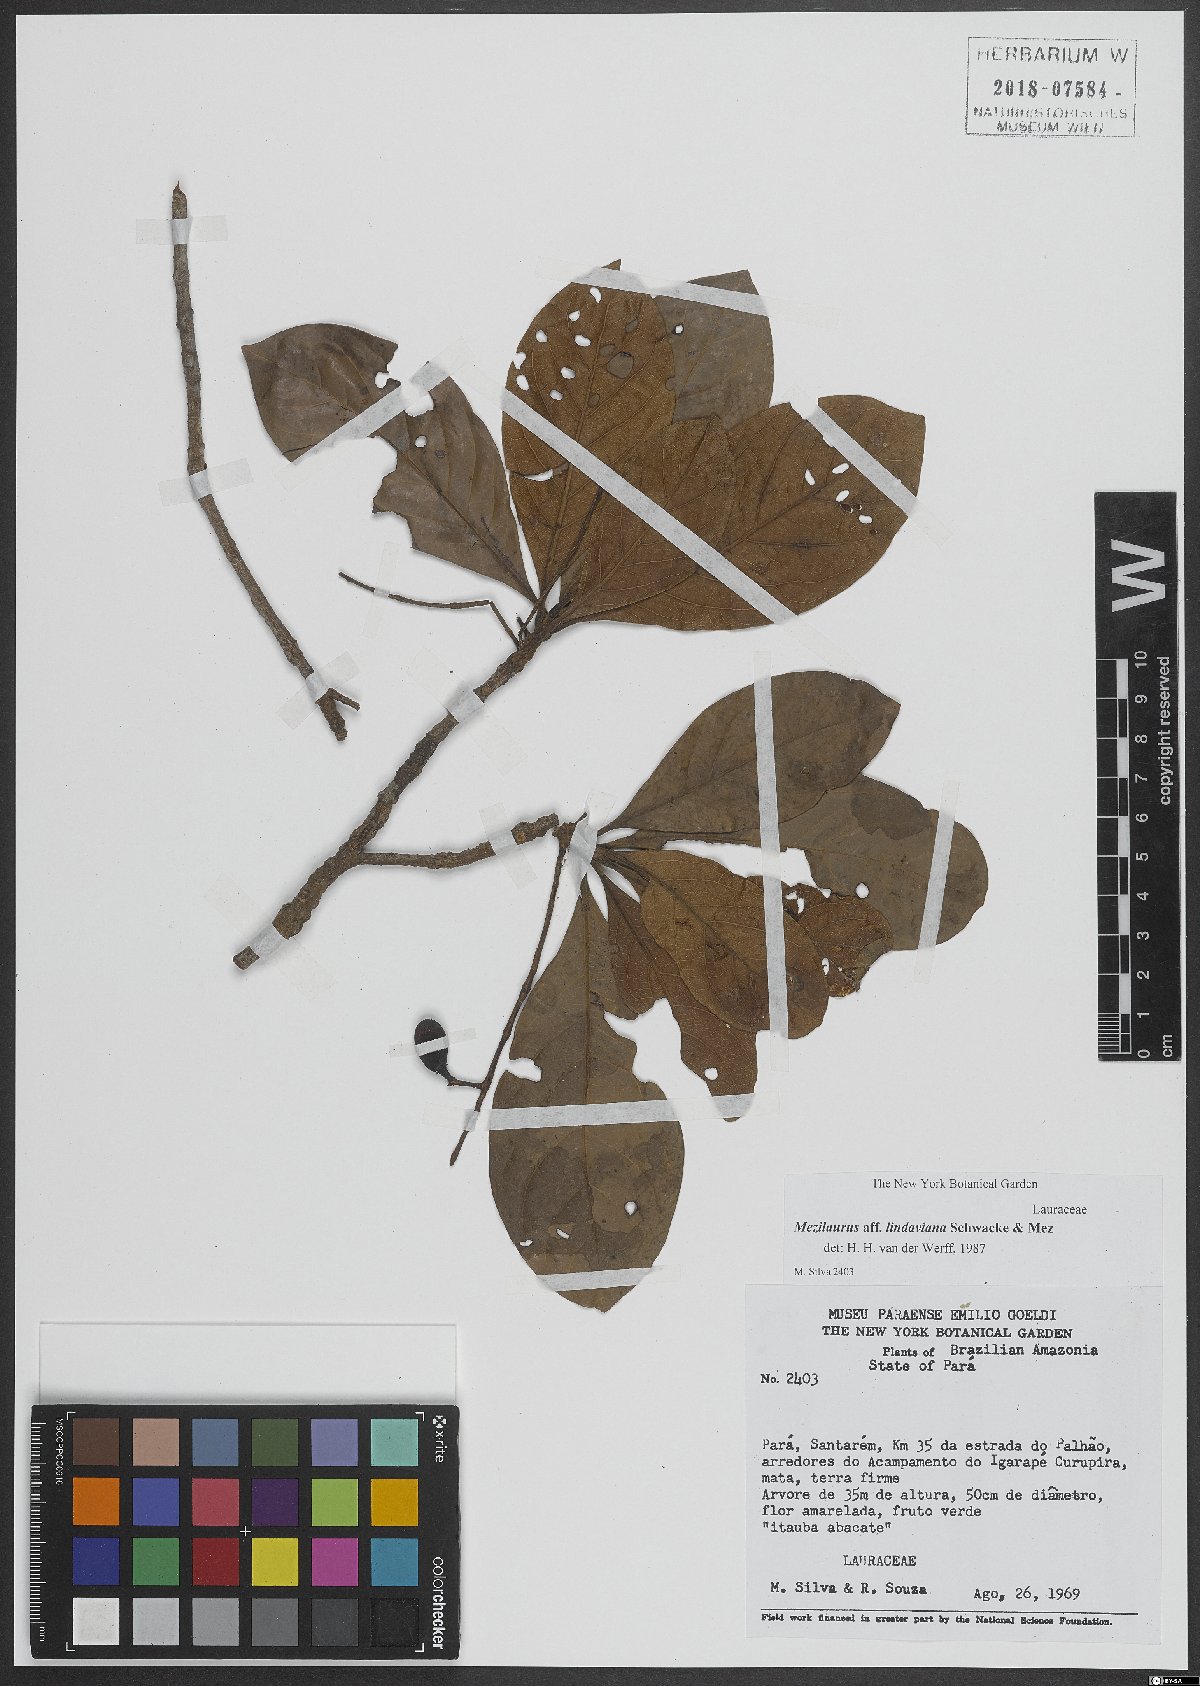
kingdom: Plantae
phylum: Tracheophyta
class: Magnoliopsida
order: Laurales
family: Lauraceae
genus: Mezilaurus
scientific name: Mezilaurus lindaviana
